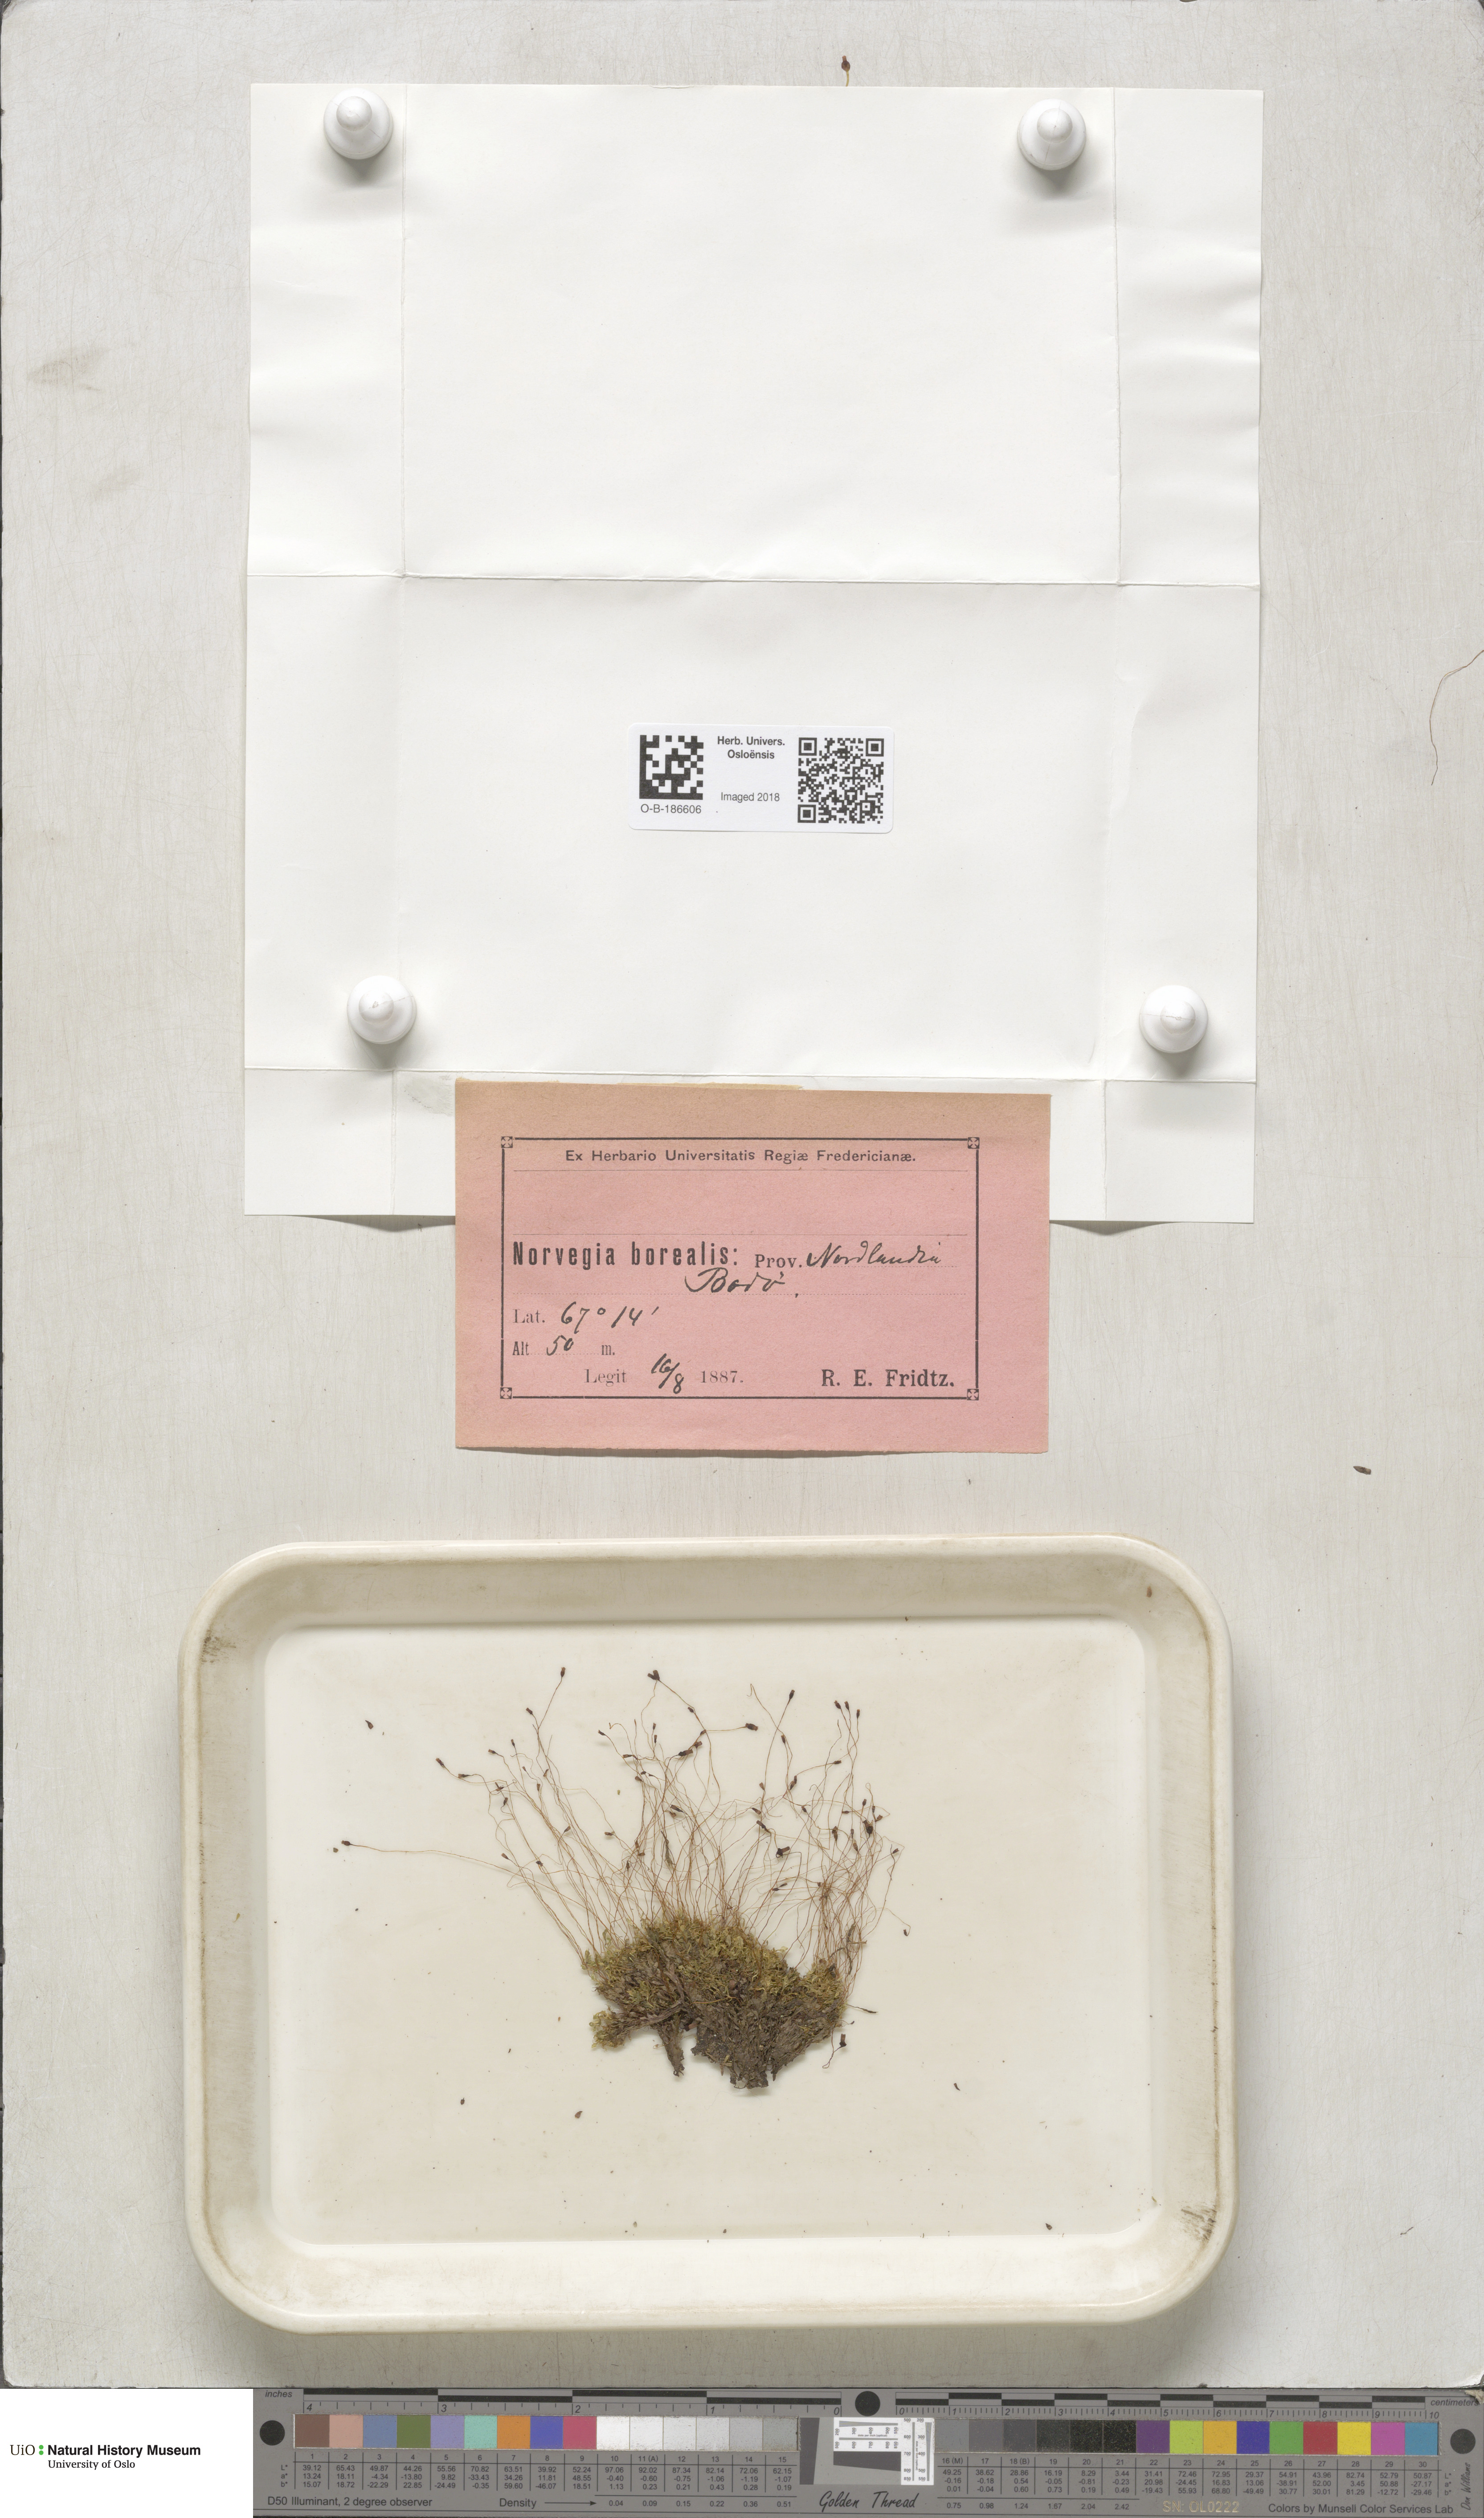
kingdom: Plantae
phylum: Bryophyta
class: Bryopsida
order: Splachnales
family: Splachnaceae
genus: Splachnum
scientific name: Splachnum vasculosum
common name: Rugged dung moss
